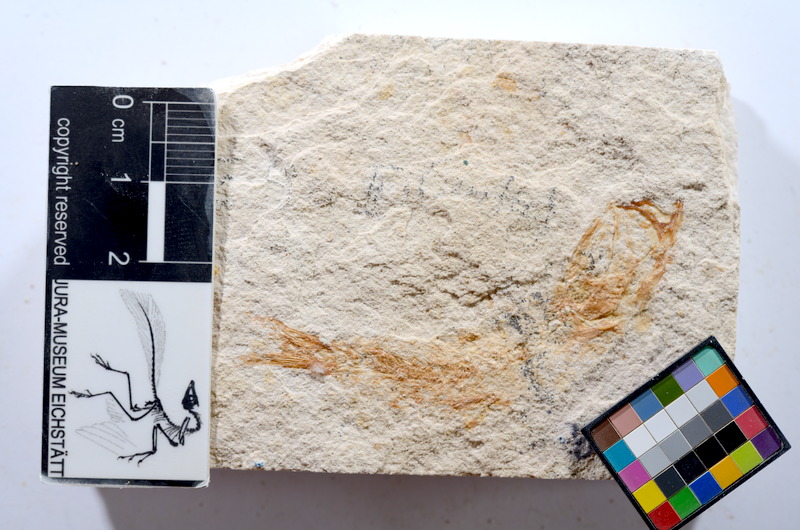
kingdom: Animalia
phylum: Chordata
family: Ascalaboidae
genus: Tharsis
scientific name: Tharsis dubius
